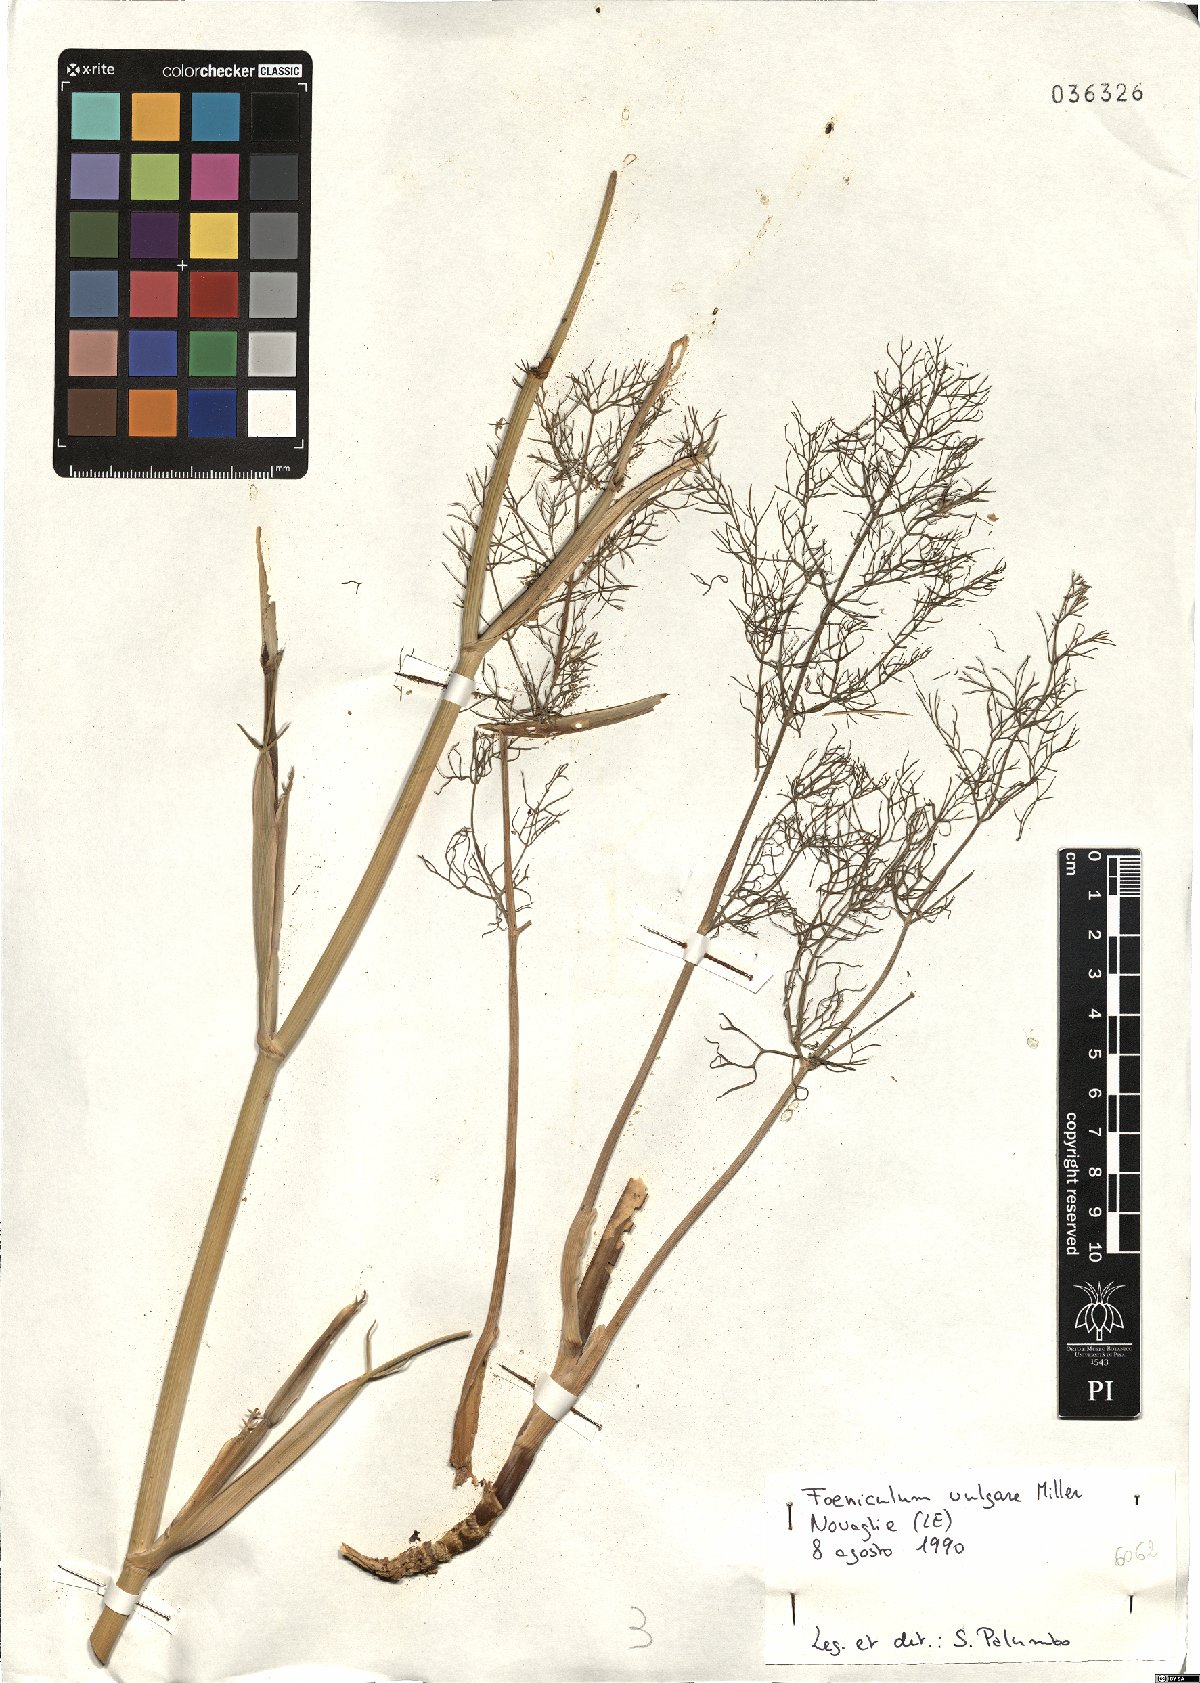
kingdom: Plantae
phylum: Tracheophyta
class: Magnoliopsida
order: Apiales
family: Apiaceae
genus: Foeniculum
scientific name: Foeniculum vulgare
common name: Fennel
